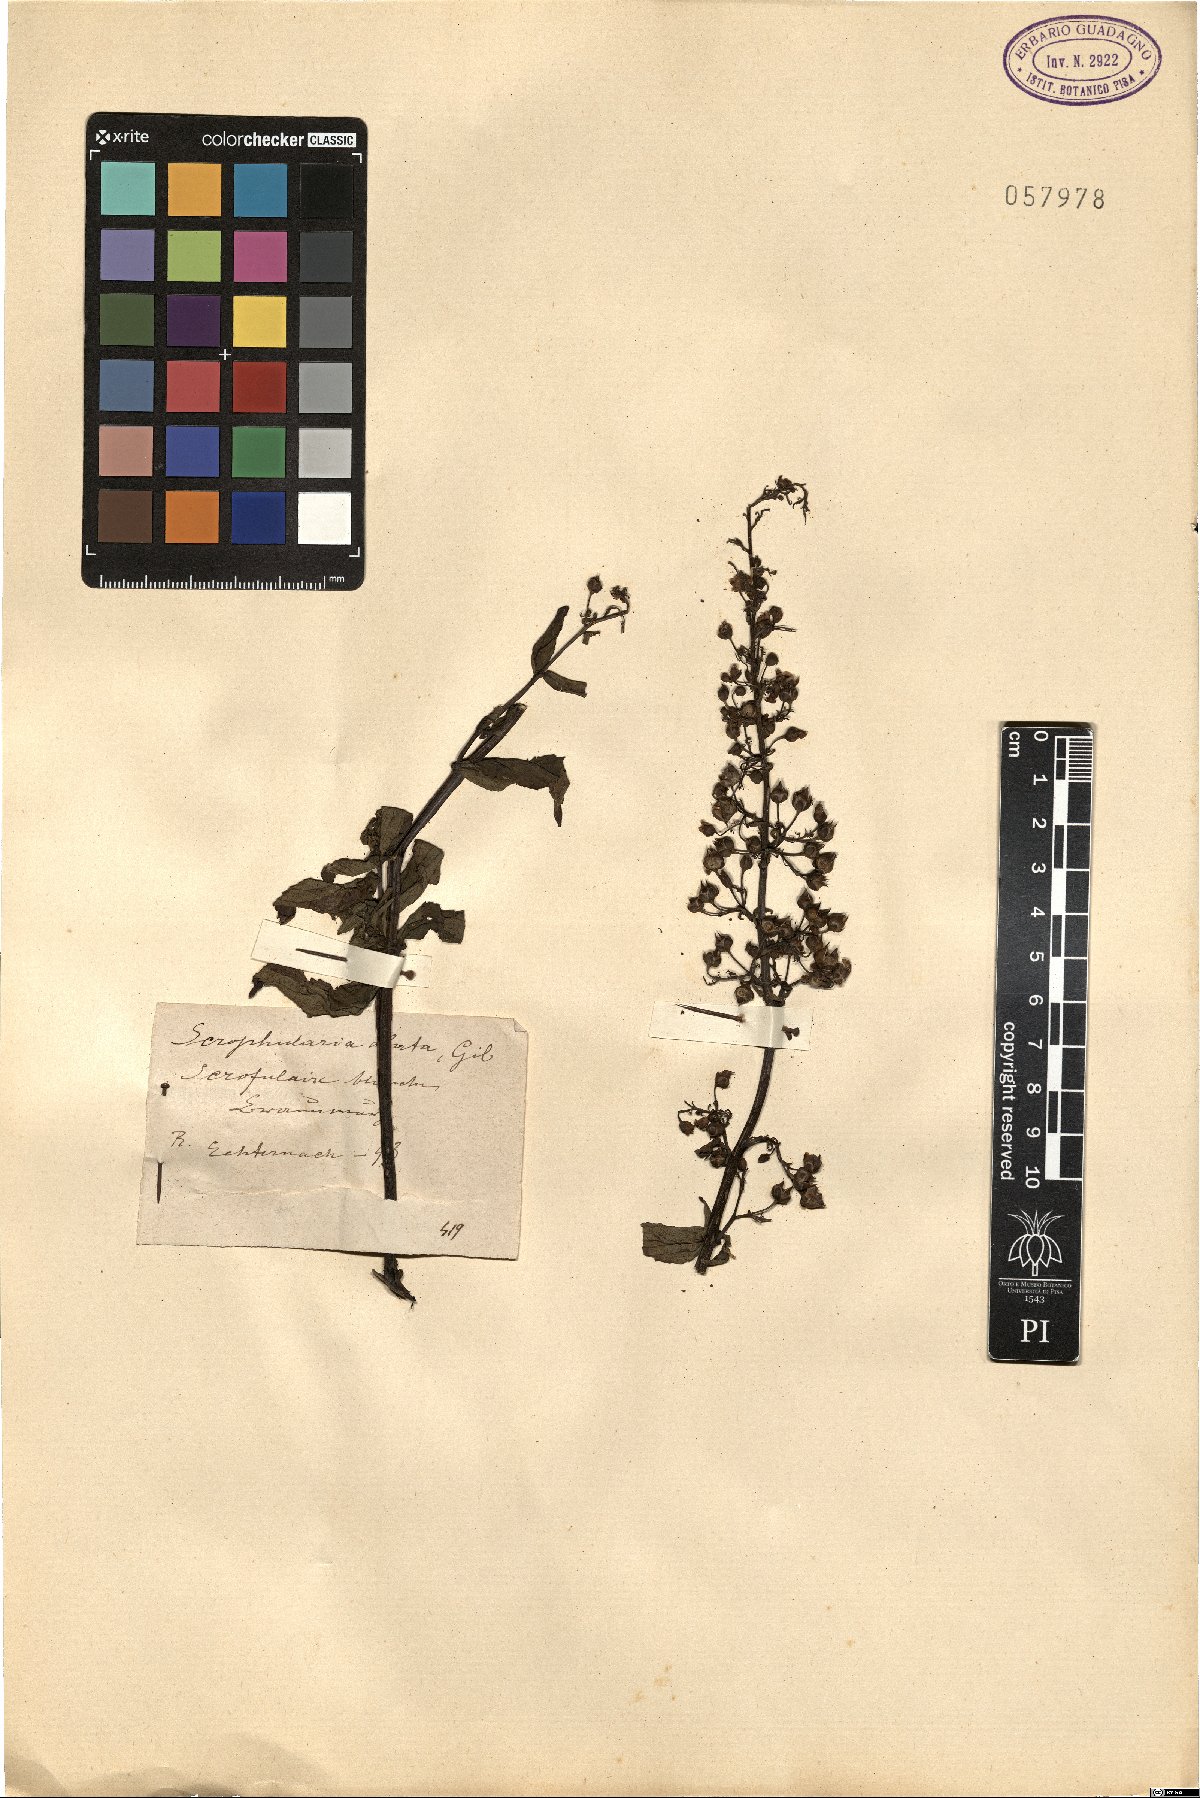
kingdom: Plantae
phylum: Tracheophyta
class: Magnoliopsida
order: Lamiales
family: Scrophulariaceae
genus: Scrophularia
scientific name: Scrophularia umbrosa
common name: Green figwort
